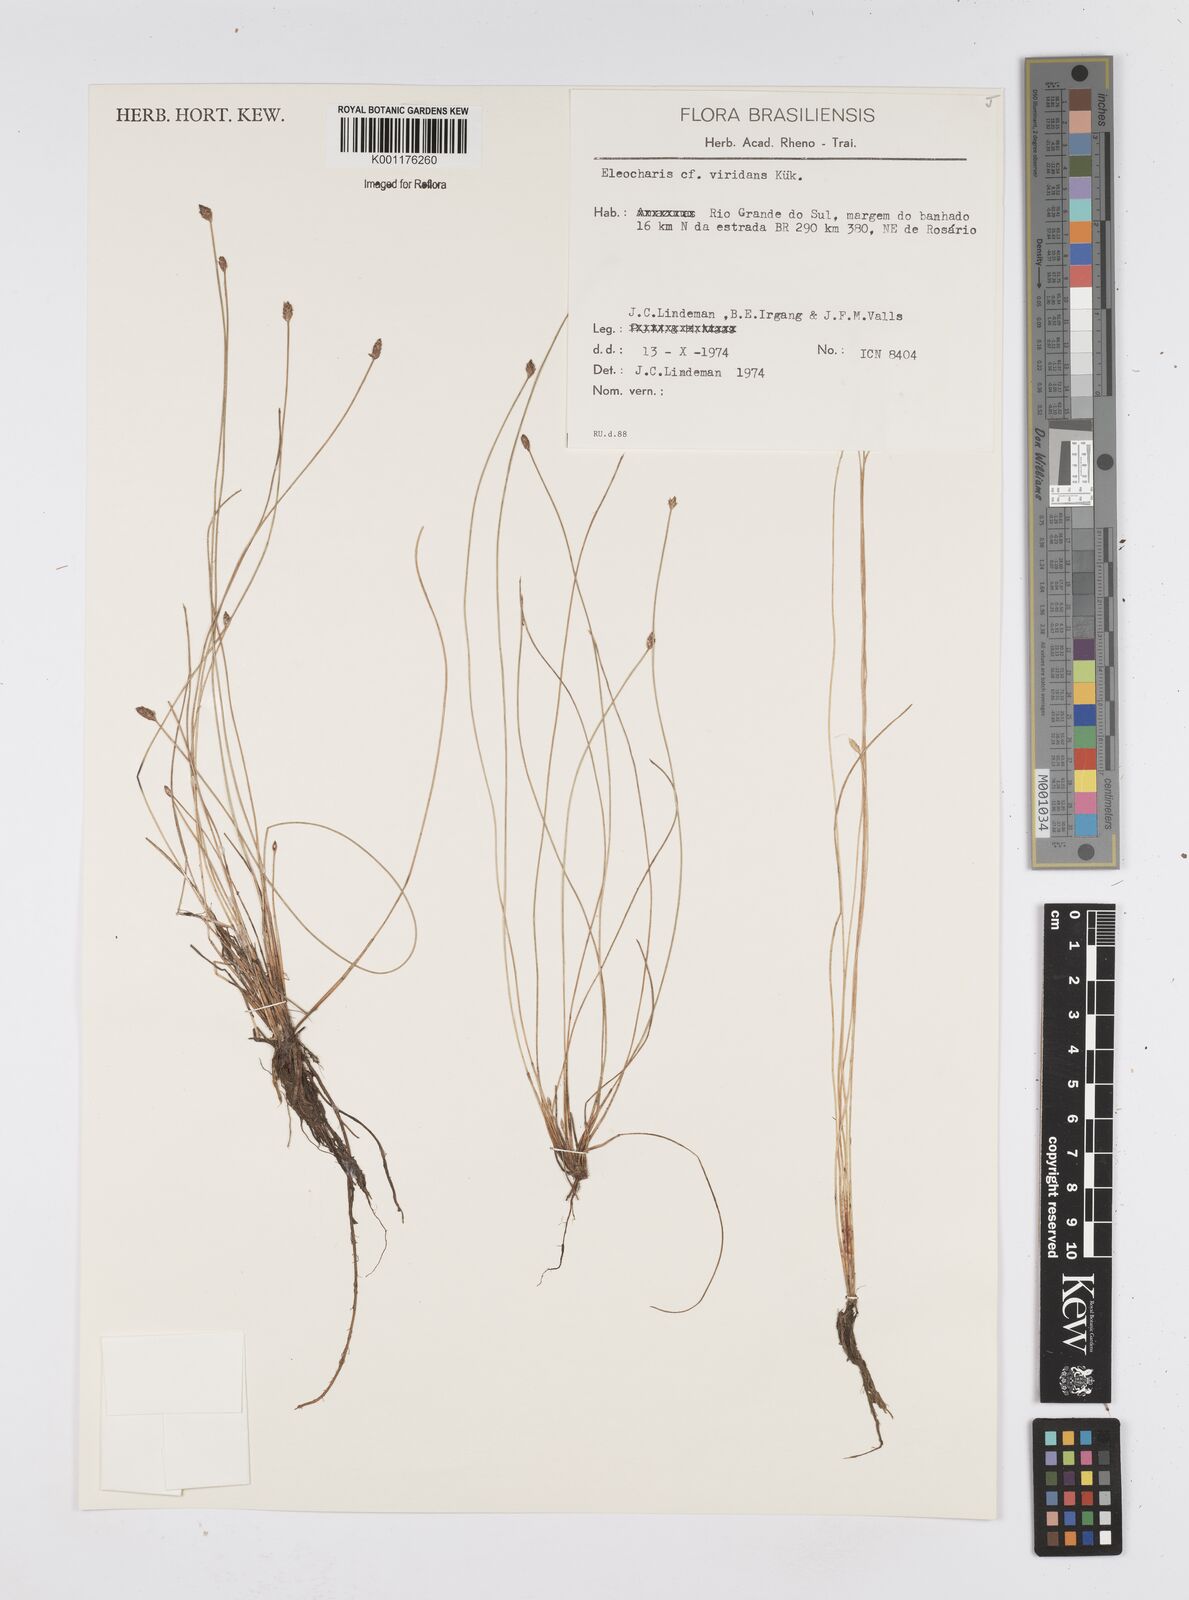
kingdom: Plantae
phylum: Tracheophyta
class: Liliopsida
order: Poales
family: Cyperaceae
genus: Eleocharis
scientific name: Eleocharis viridans
